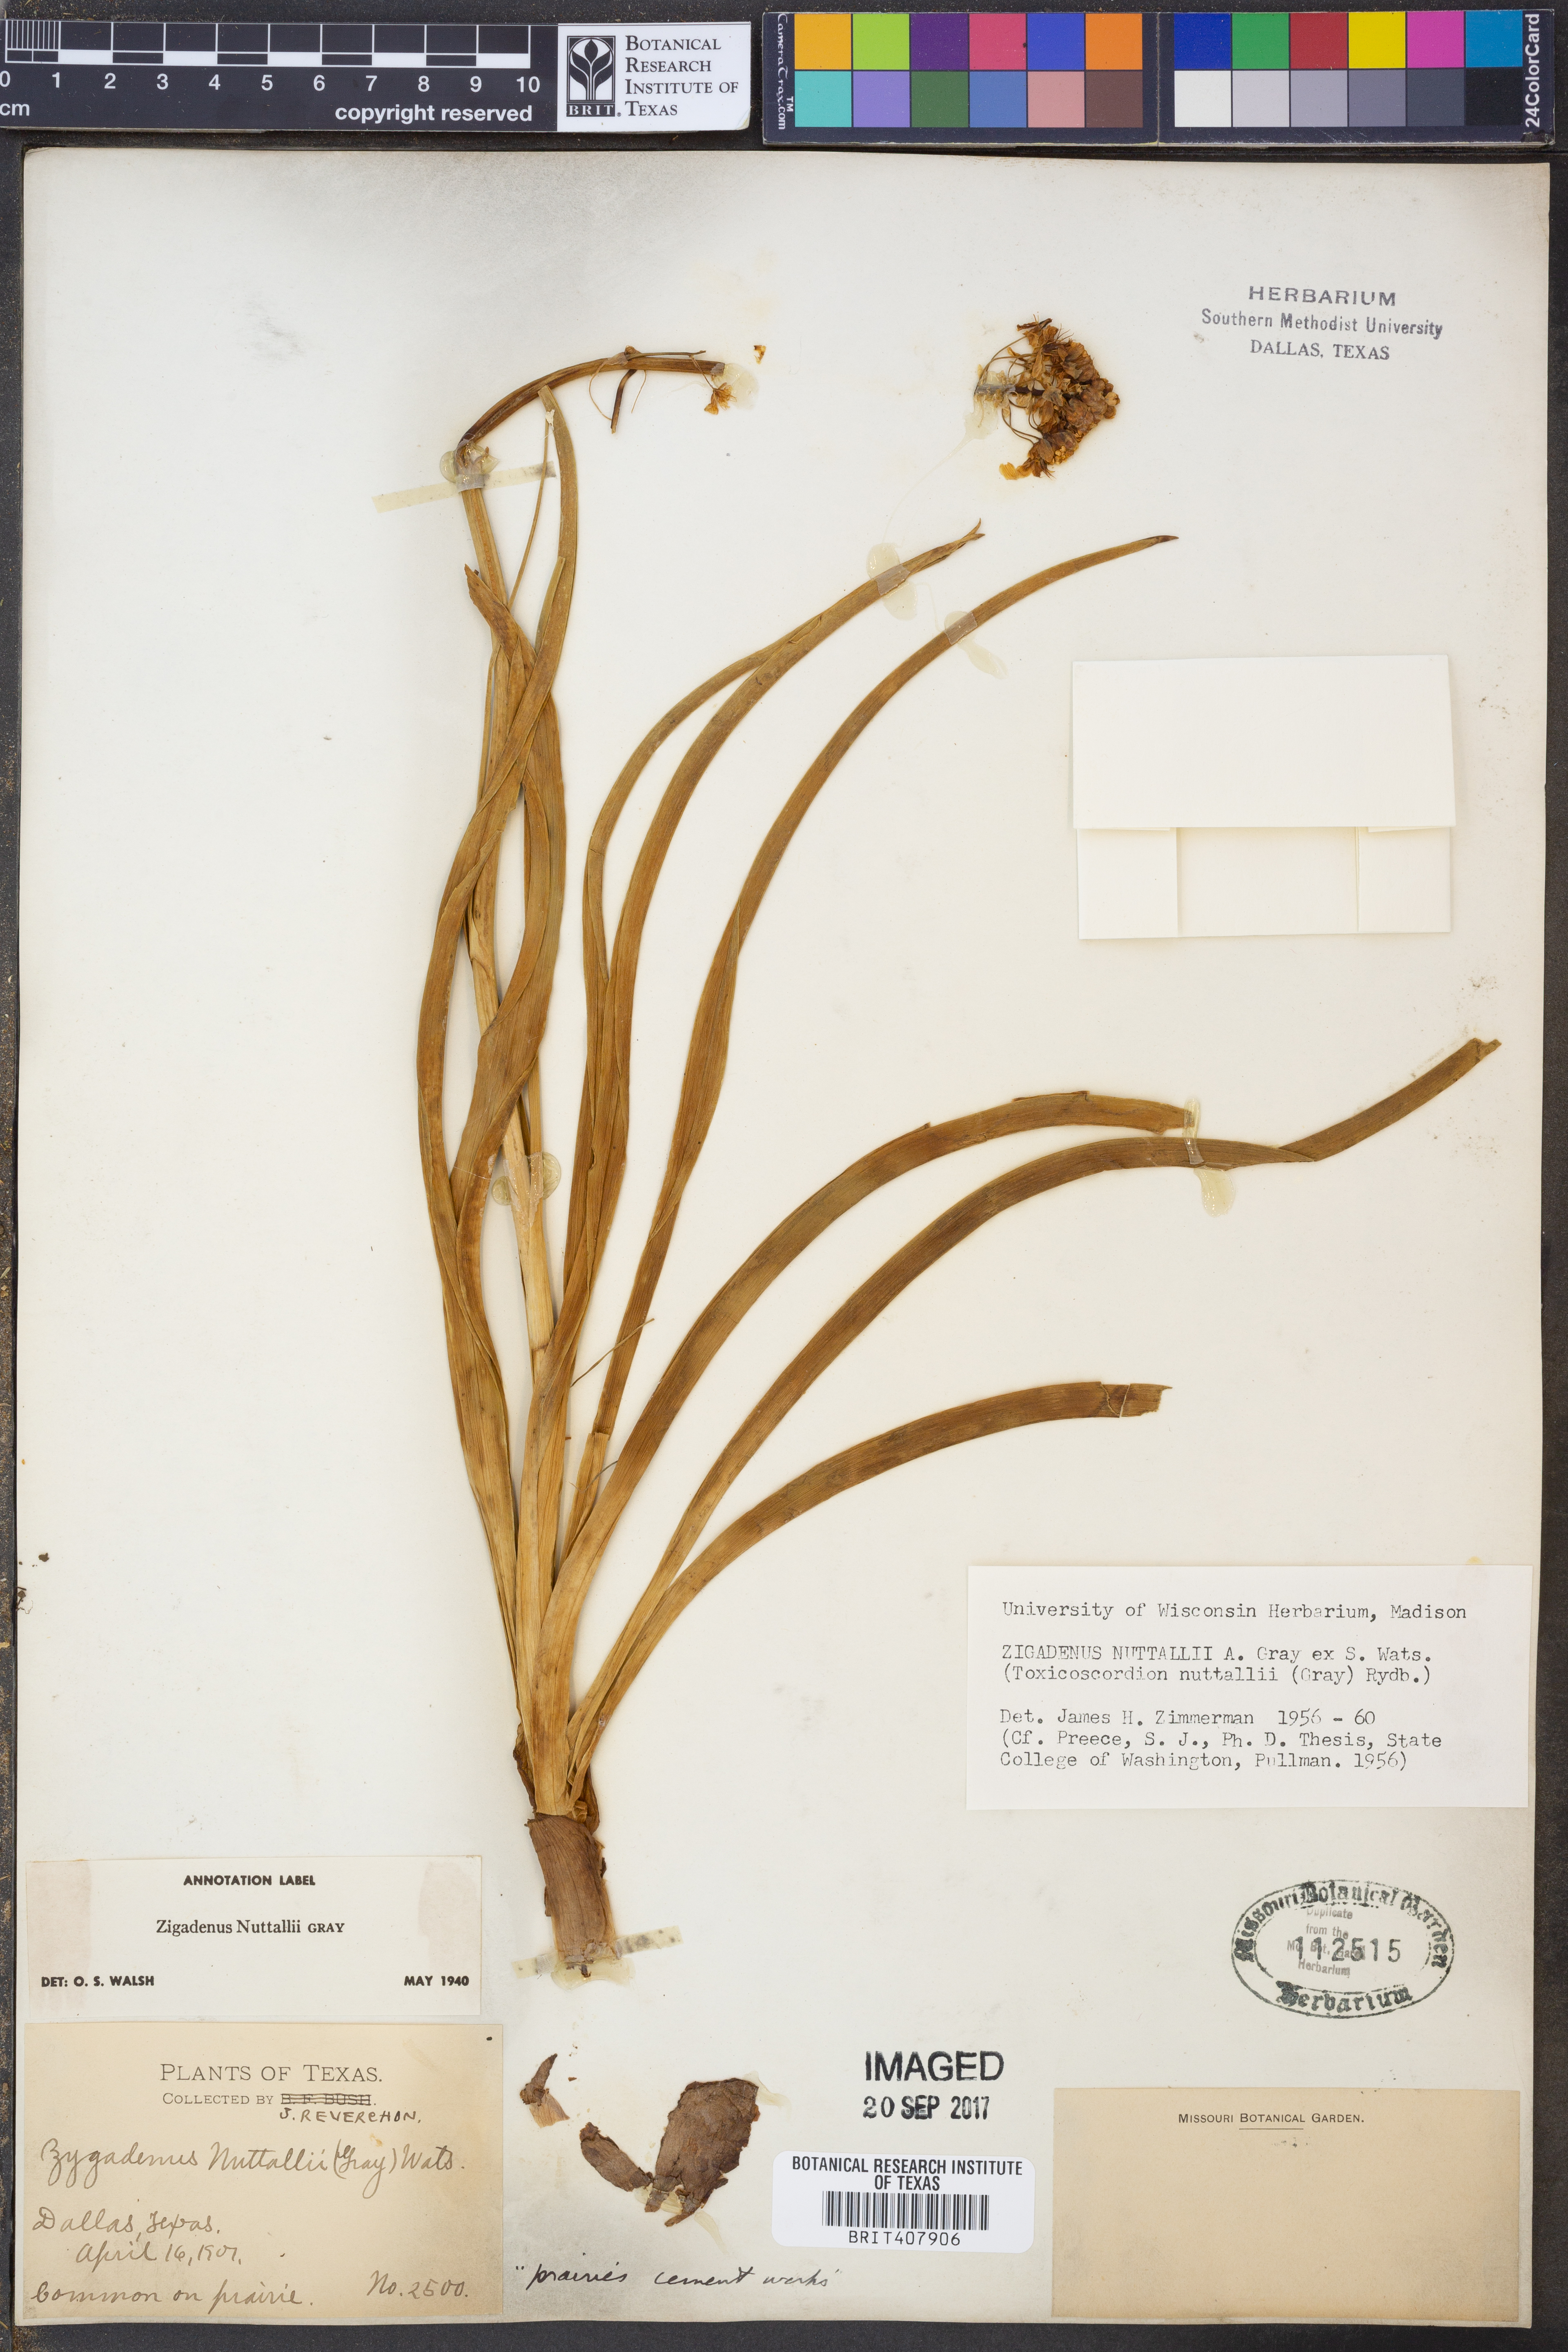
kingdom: Plantae
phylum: Tracheophyta
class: Liliopsida
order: Liliales
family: Melanthiaceae
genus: Toxicoscordion
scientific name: Toxicoscordion nuttallii
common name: Poison sego
